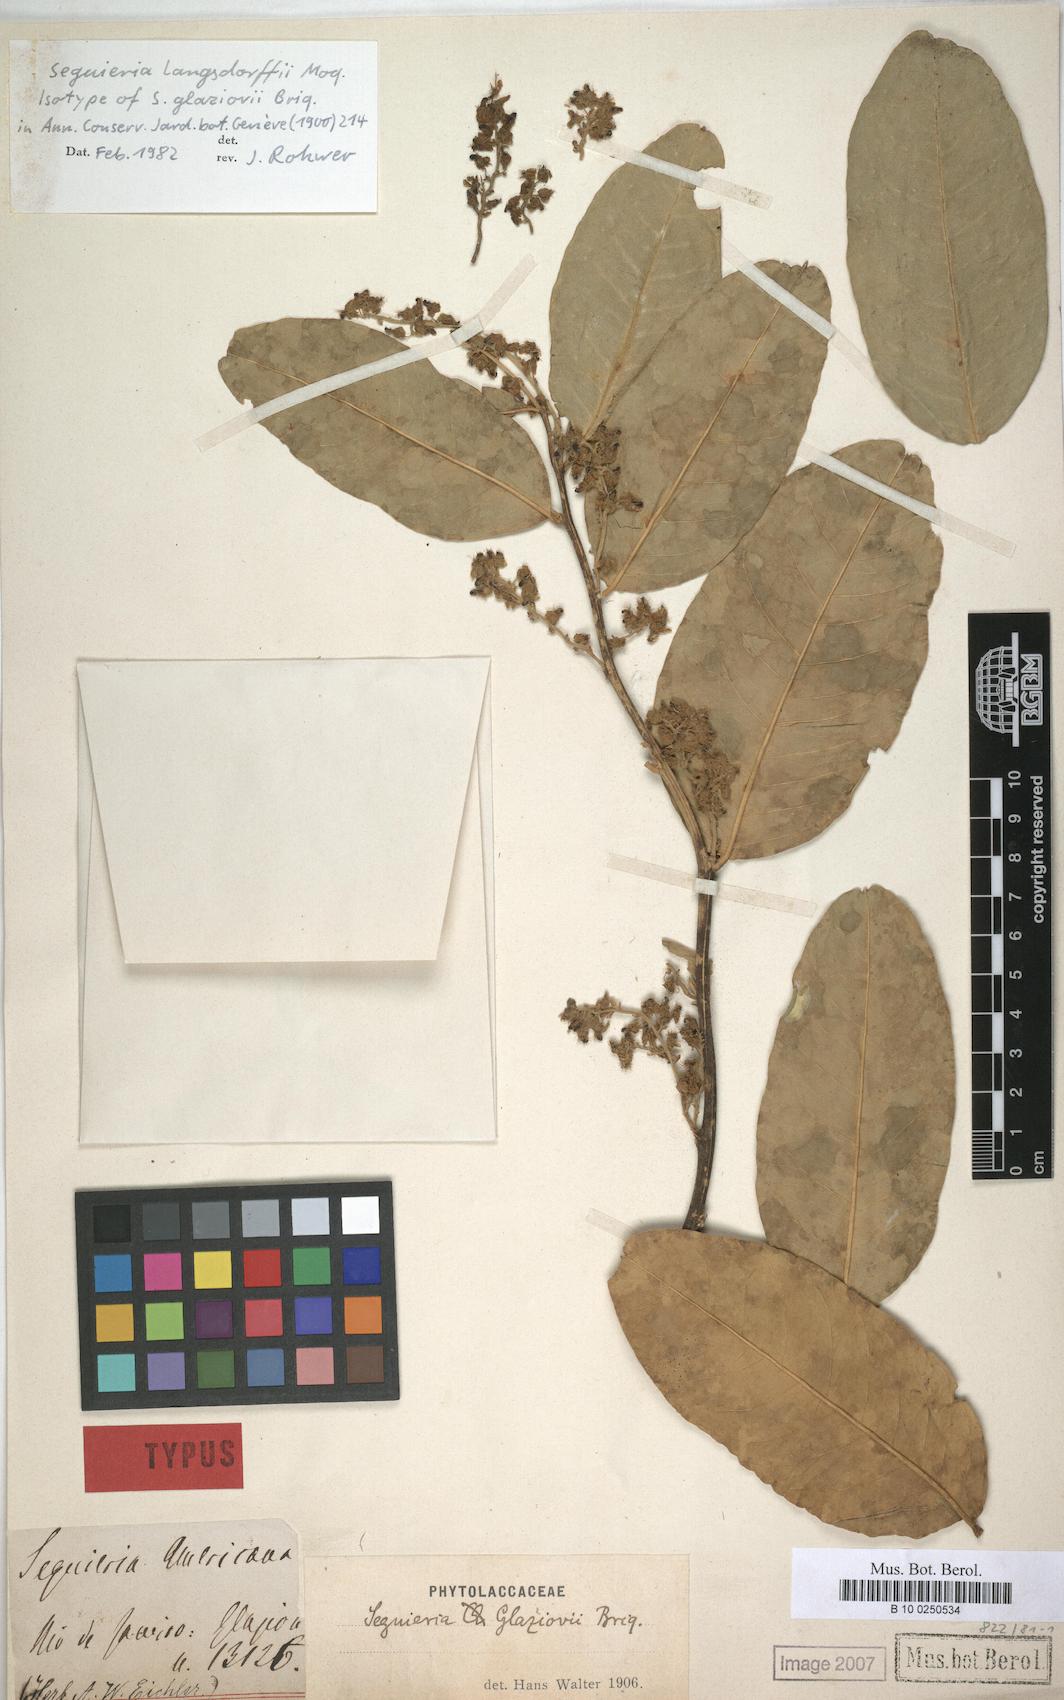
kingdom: Plantae
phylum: Tracheophyta
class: Magnoliopsida
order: Caryophyllales
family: Phytolaccaceae
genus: Seguieria
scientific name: Seguieria langsdorffii
